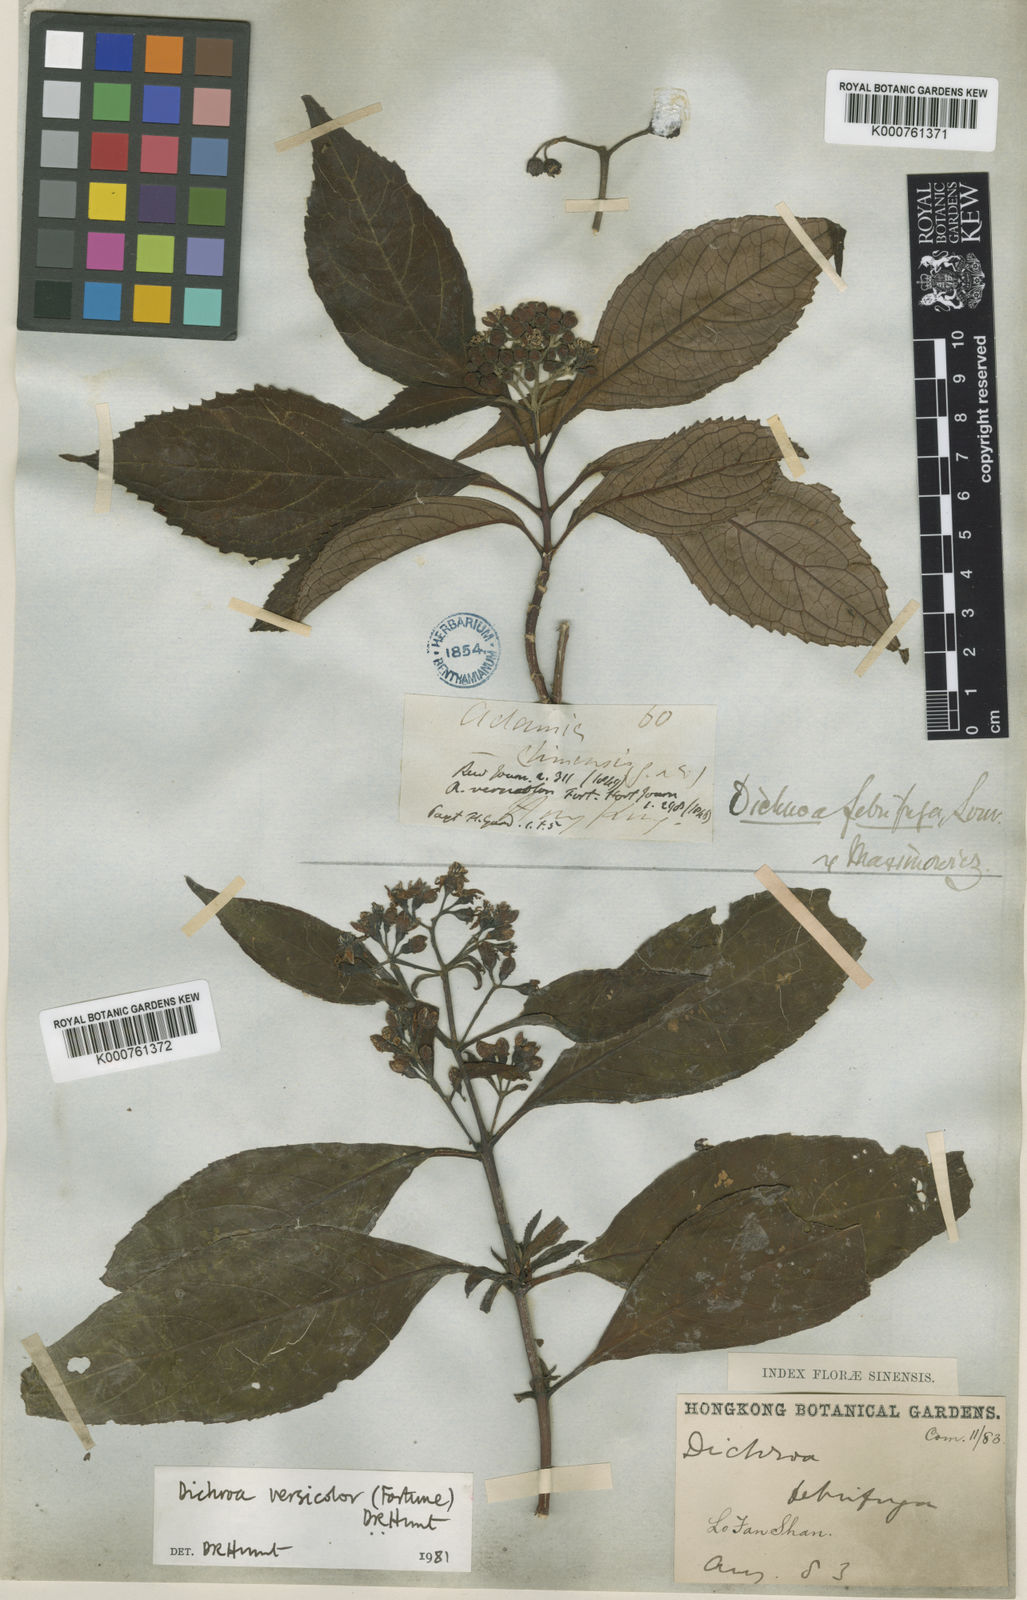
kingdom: Plantae
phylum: Tracheophyta
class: Magnoliopsida
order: Cornales
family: Hydrangeaceae
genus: Hydrangea
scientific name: Hydrangea febrifuga
